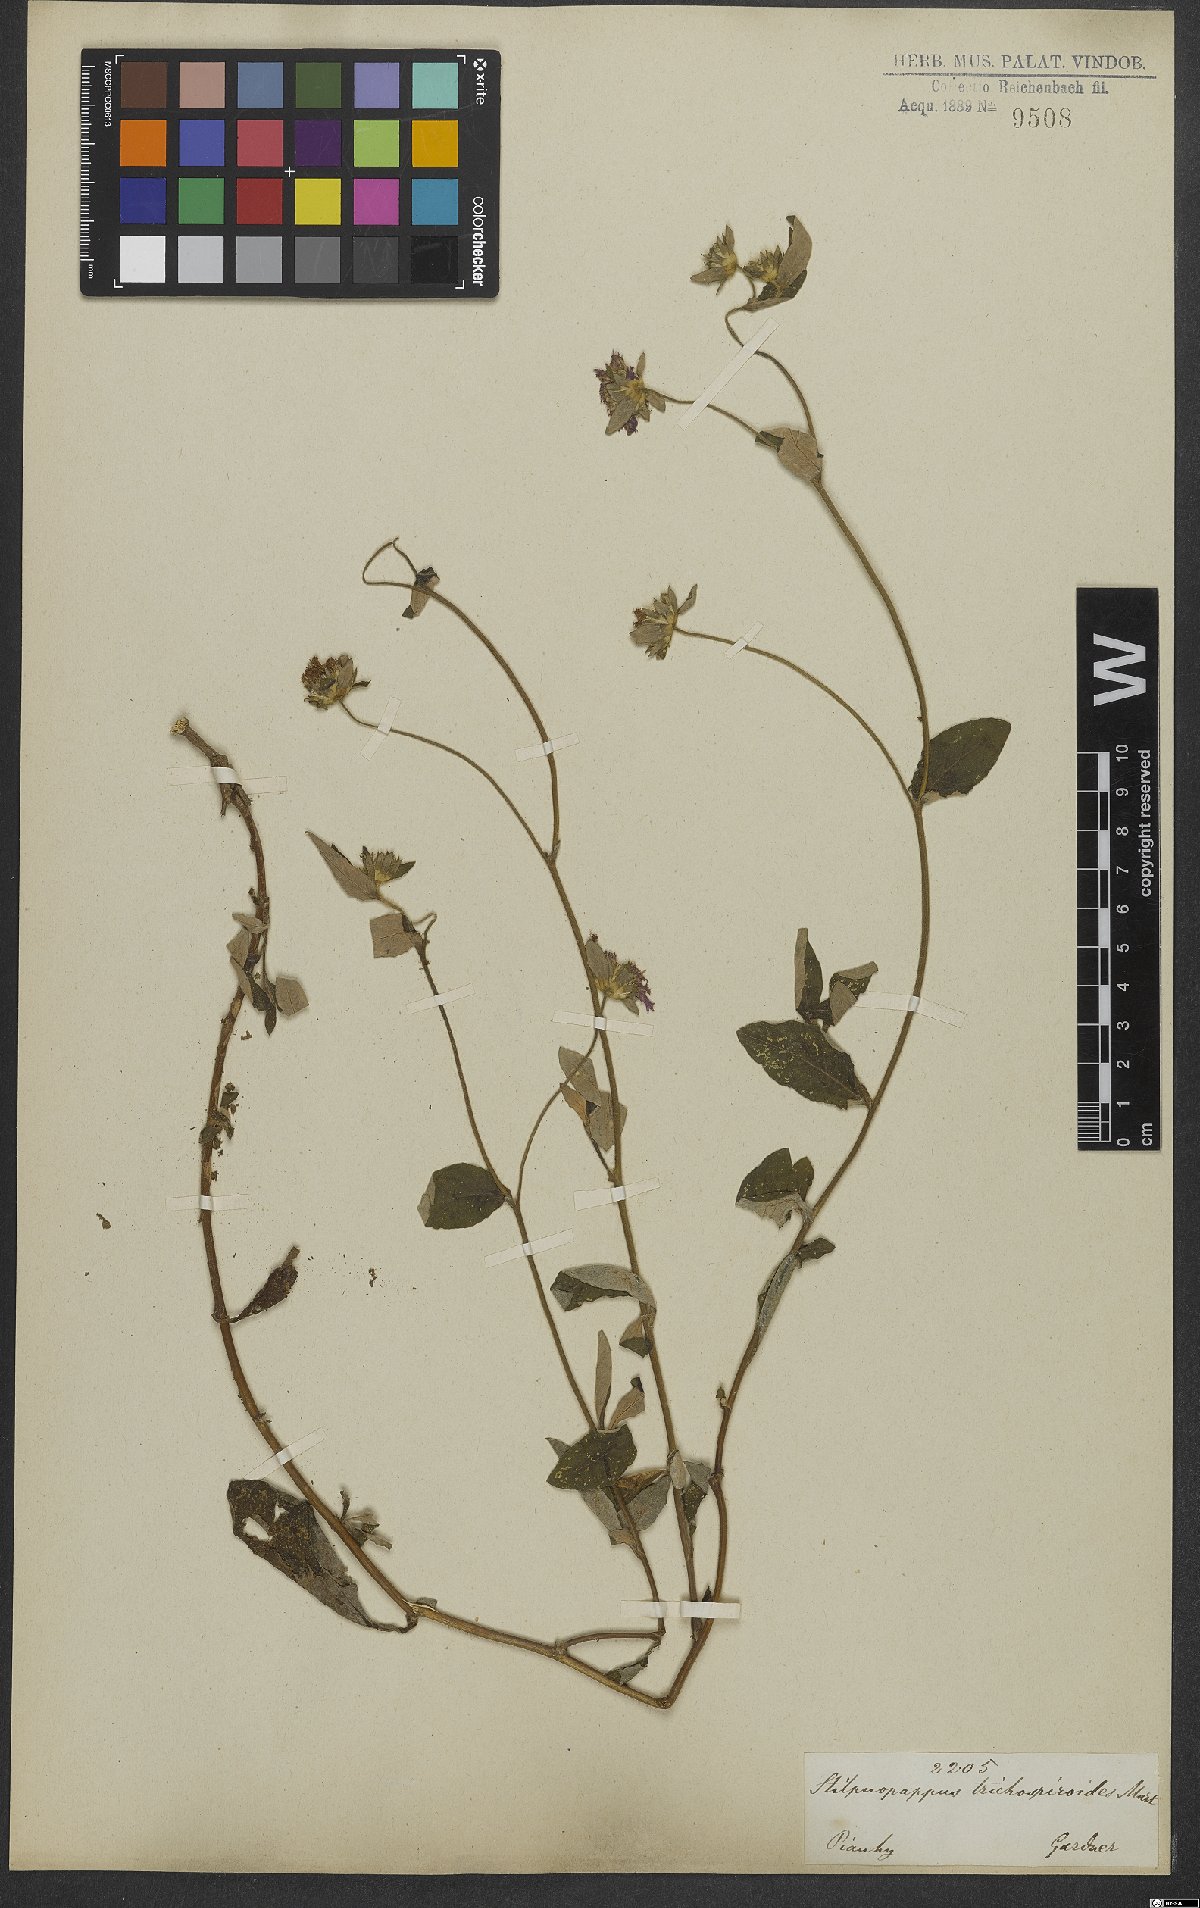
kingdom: Plantae
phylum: Tracheophyta
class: Magnoliopsida
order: Asterales
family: Asteraceae
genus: Stilpnopappus
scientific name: Stilpnopappus trichospiroides
